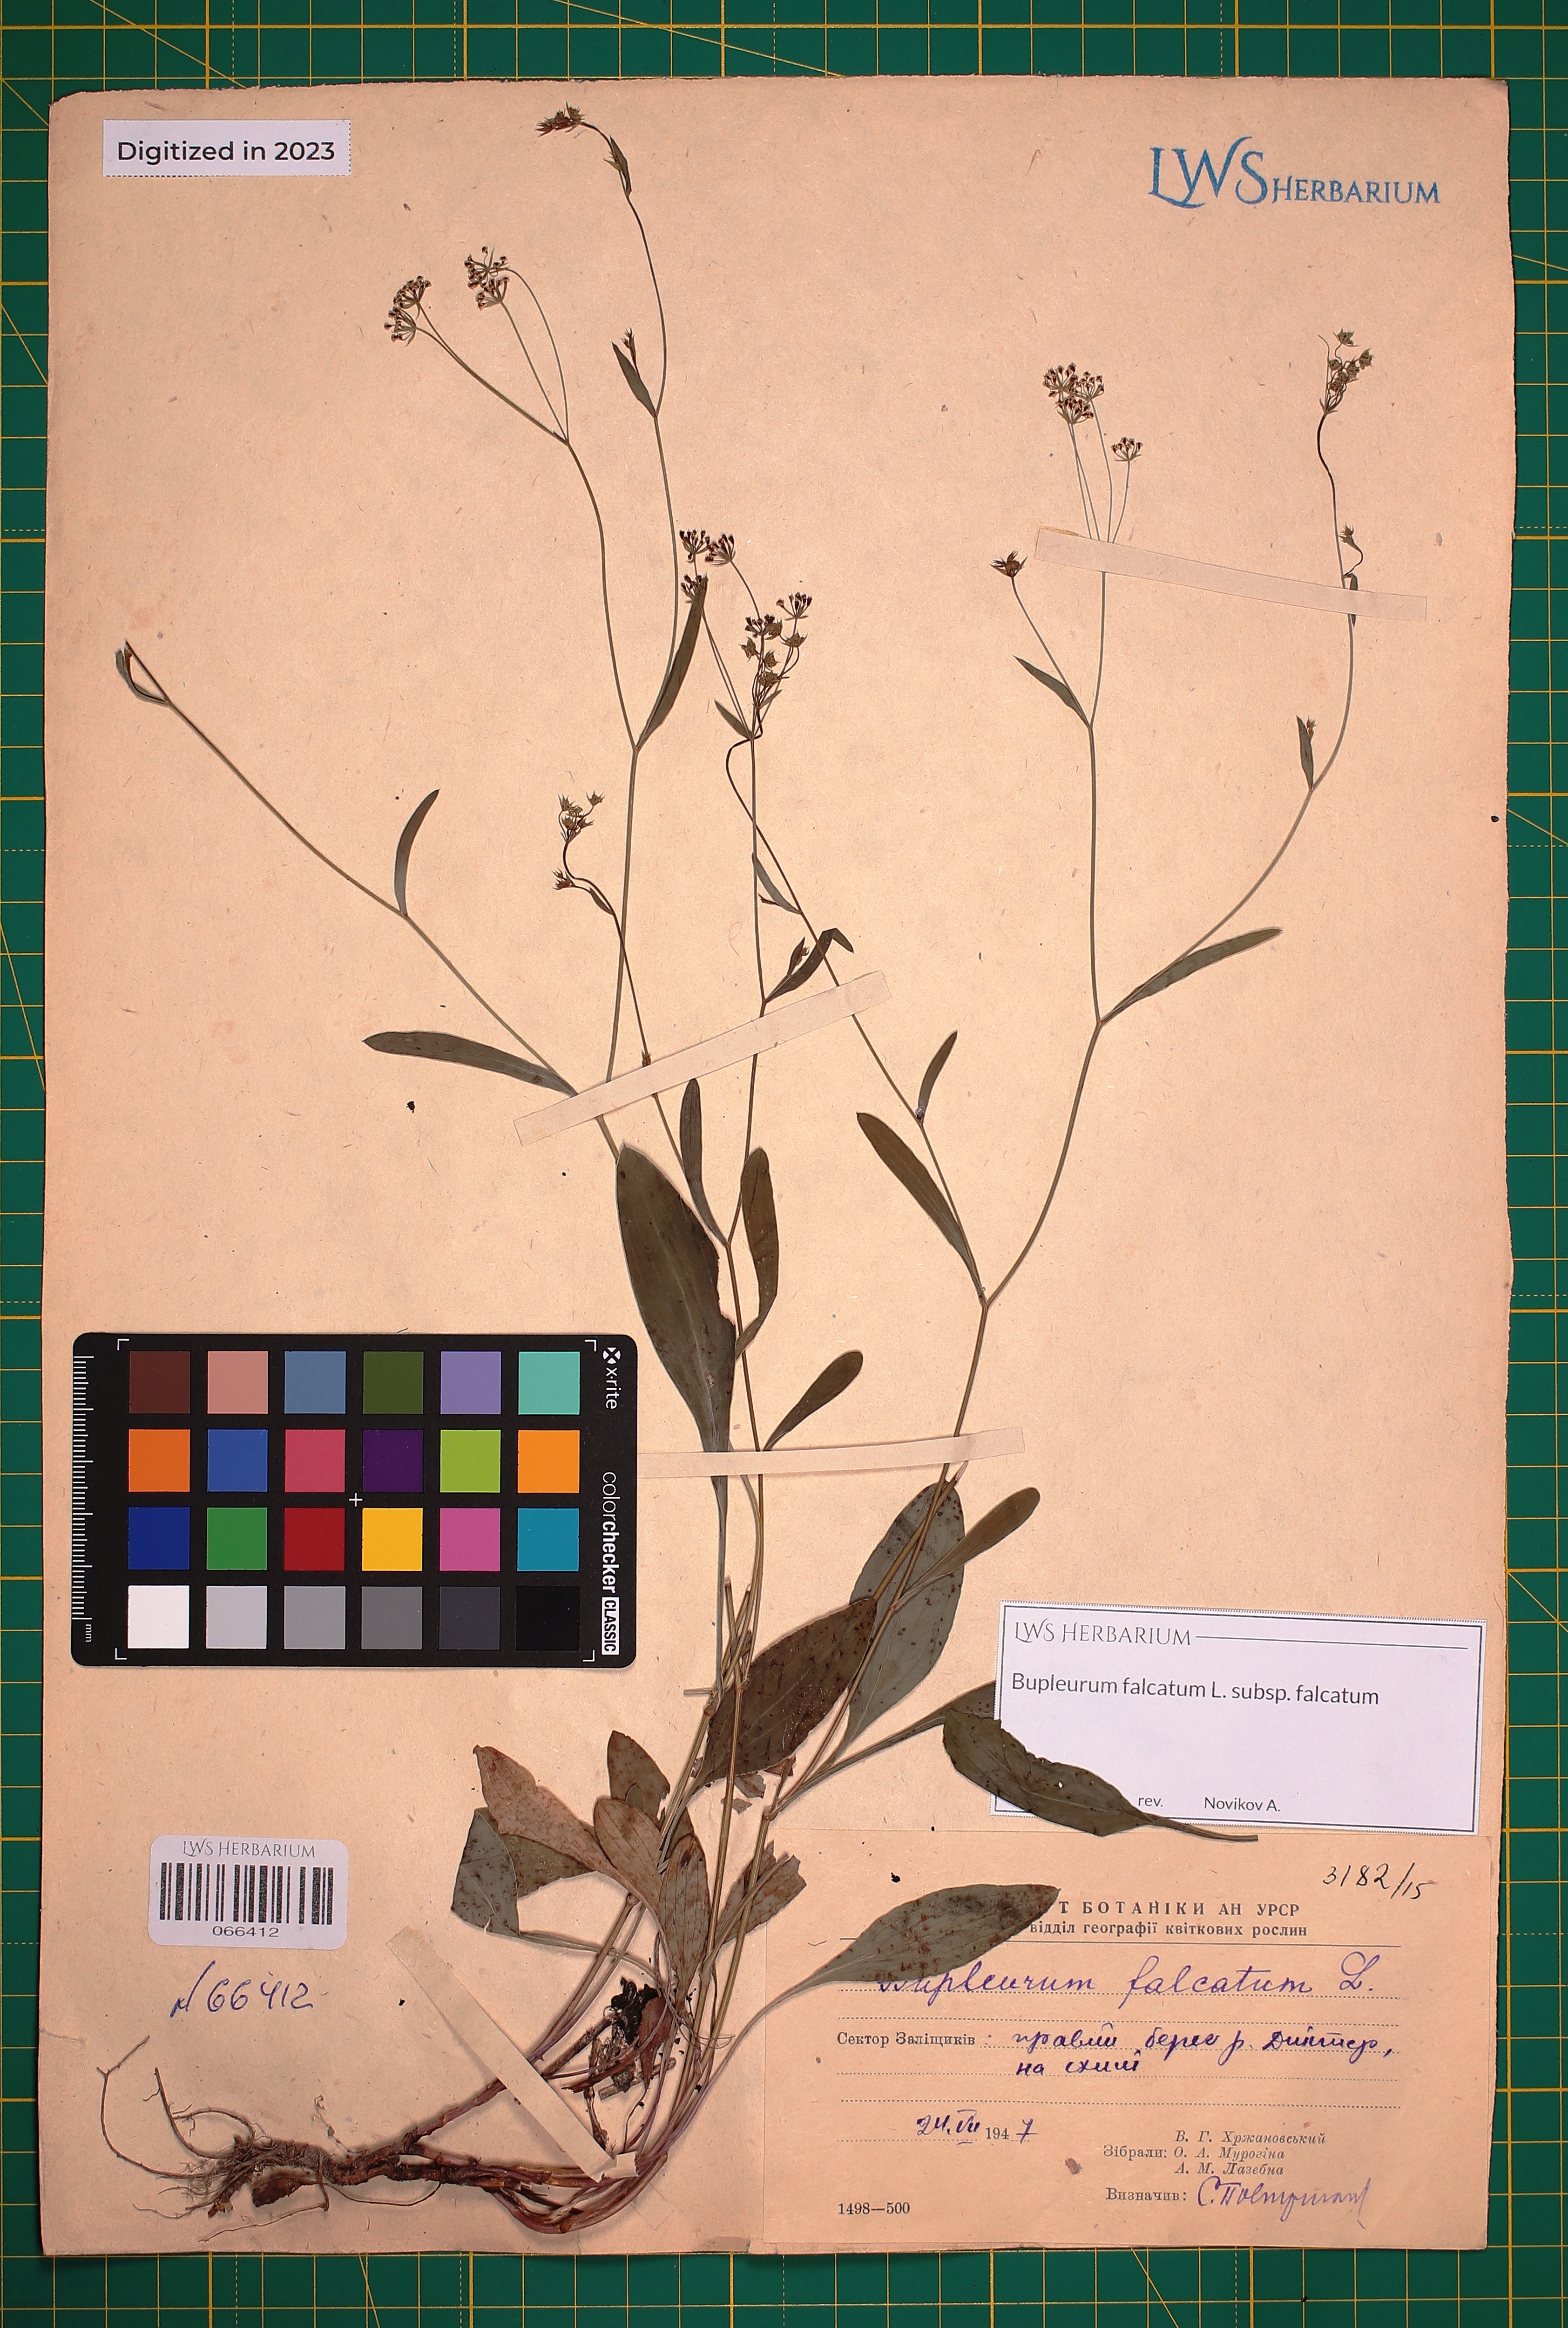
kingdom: Plantae
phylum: Tracheophyta
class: Magnoliopsida
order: Apiales
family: Apiaceae
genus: Bupleurum
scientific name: Bupleurum falcatum
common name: Sickle-leaved hare's-ear
